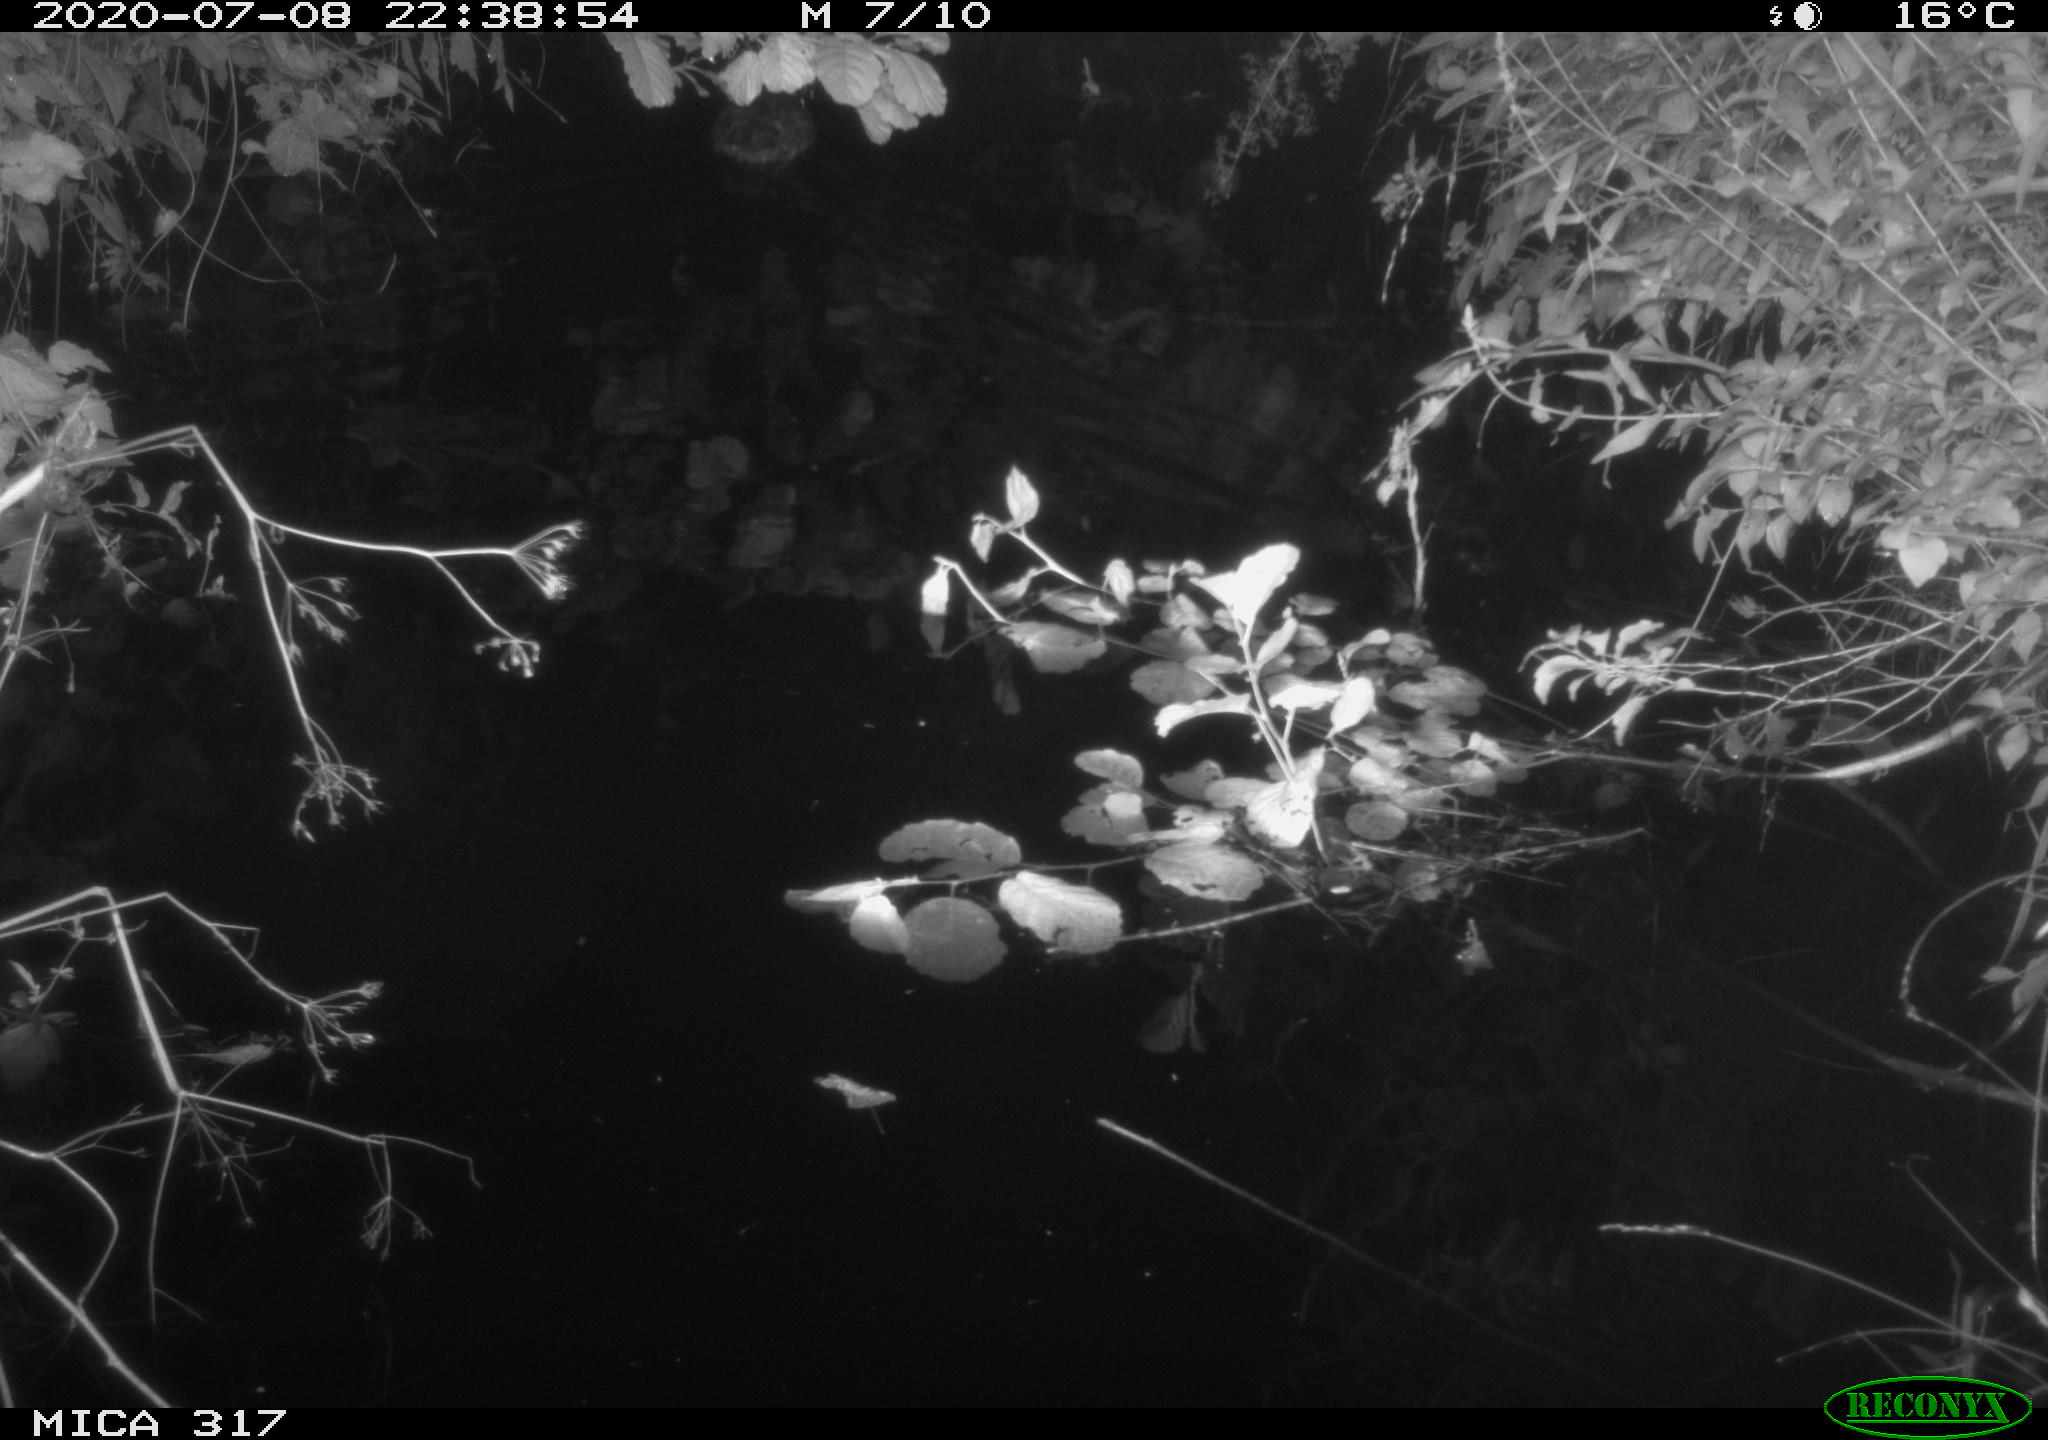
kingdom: Animalia
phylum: Chordata
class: Aves
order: Anseriformes
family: Anatidae
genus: Anas
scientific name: Anas platyrhynchos
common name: Mallard
